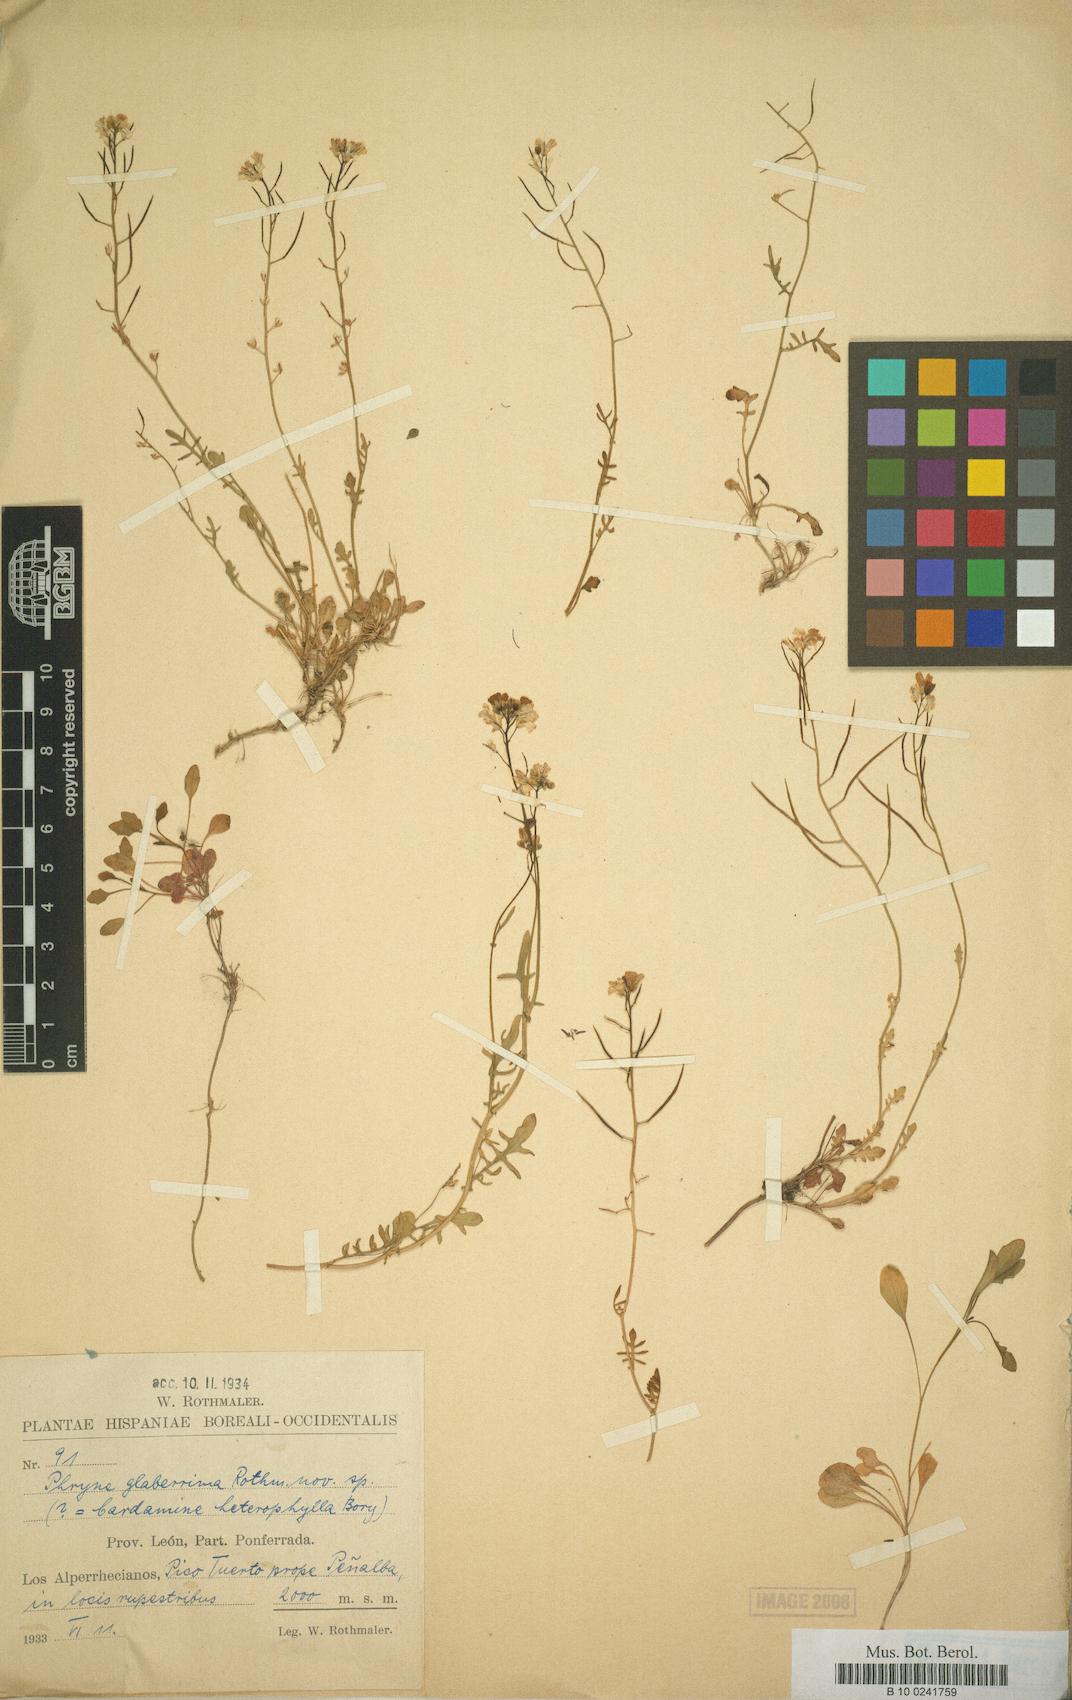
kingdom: Plantae
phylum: Tracheophyta
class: Magnoliopsida
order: Brassicales
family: Brassicaceae
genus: Murbeckiella
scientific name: Murbeckiella boryi
